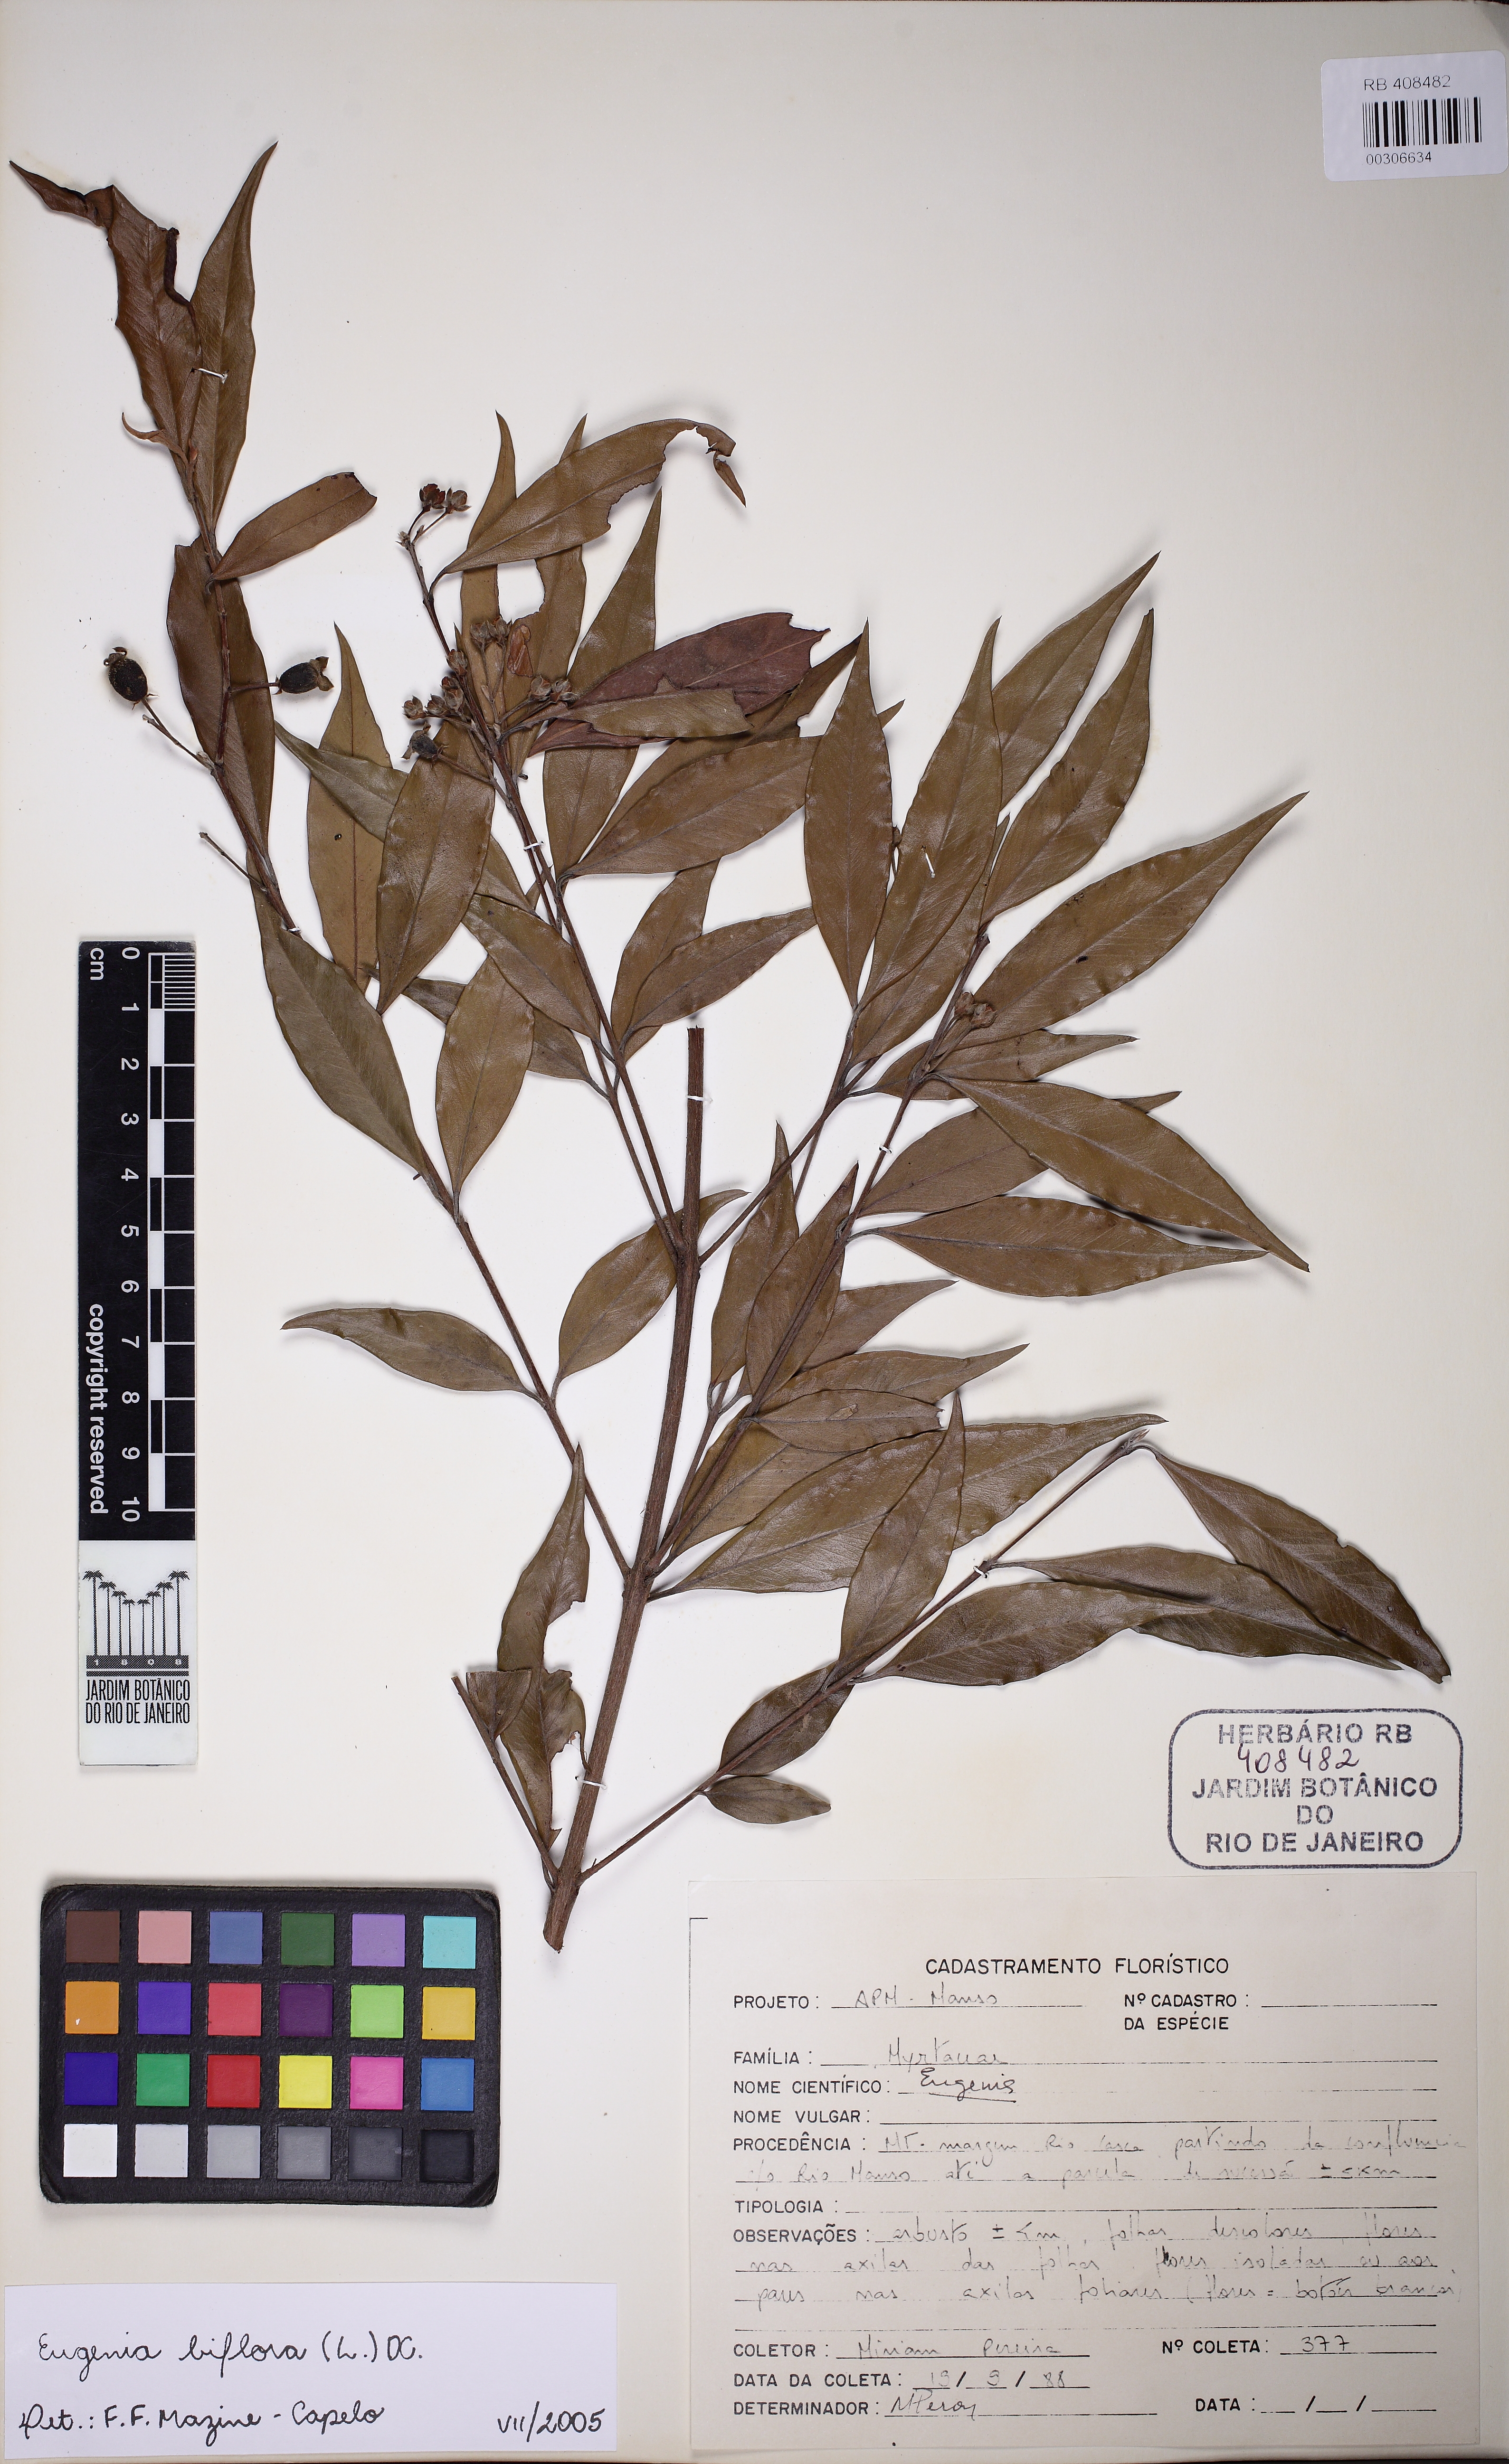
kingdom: Plantae
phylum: Tracheophyta
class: Magnoliopsida
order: Myrtales
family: Myrtaceae
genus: Eugenia
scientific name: Eugenia biflora
